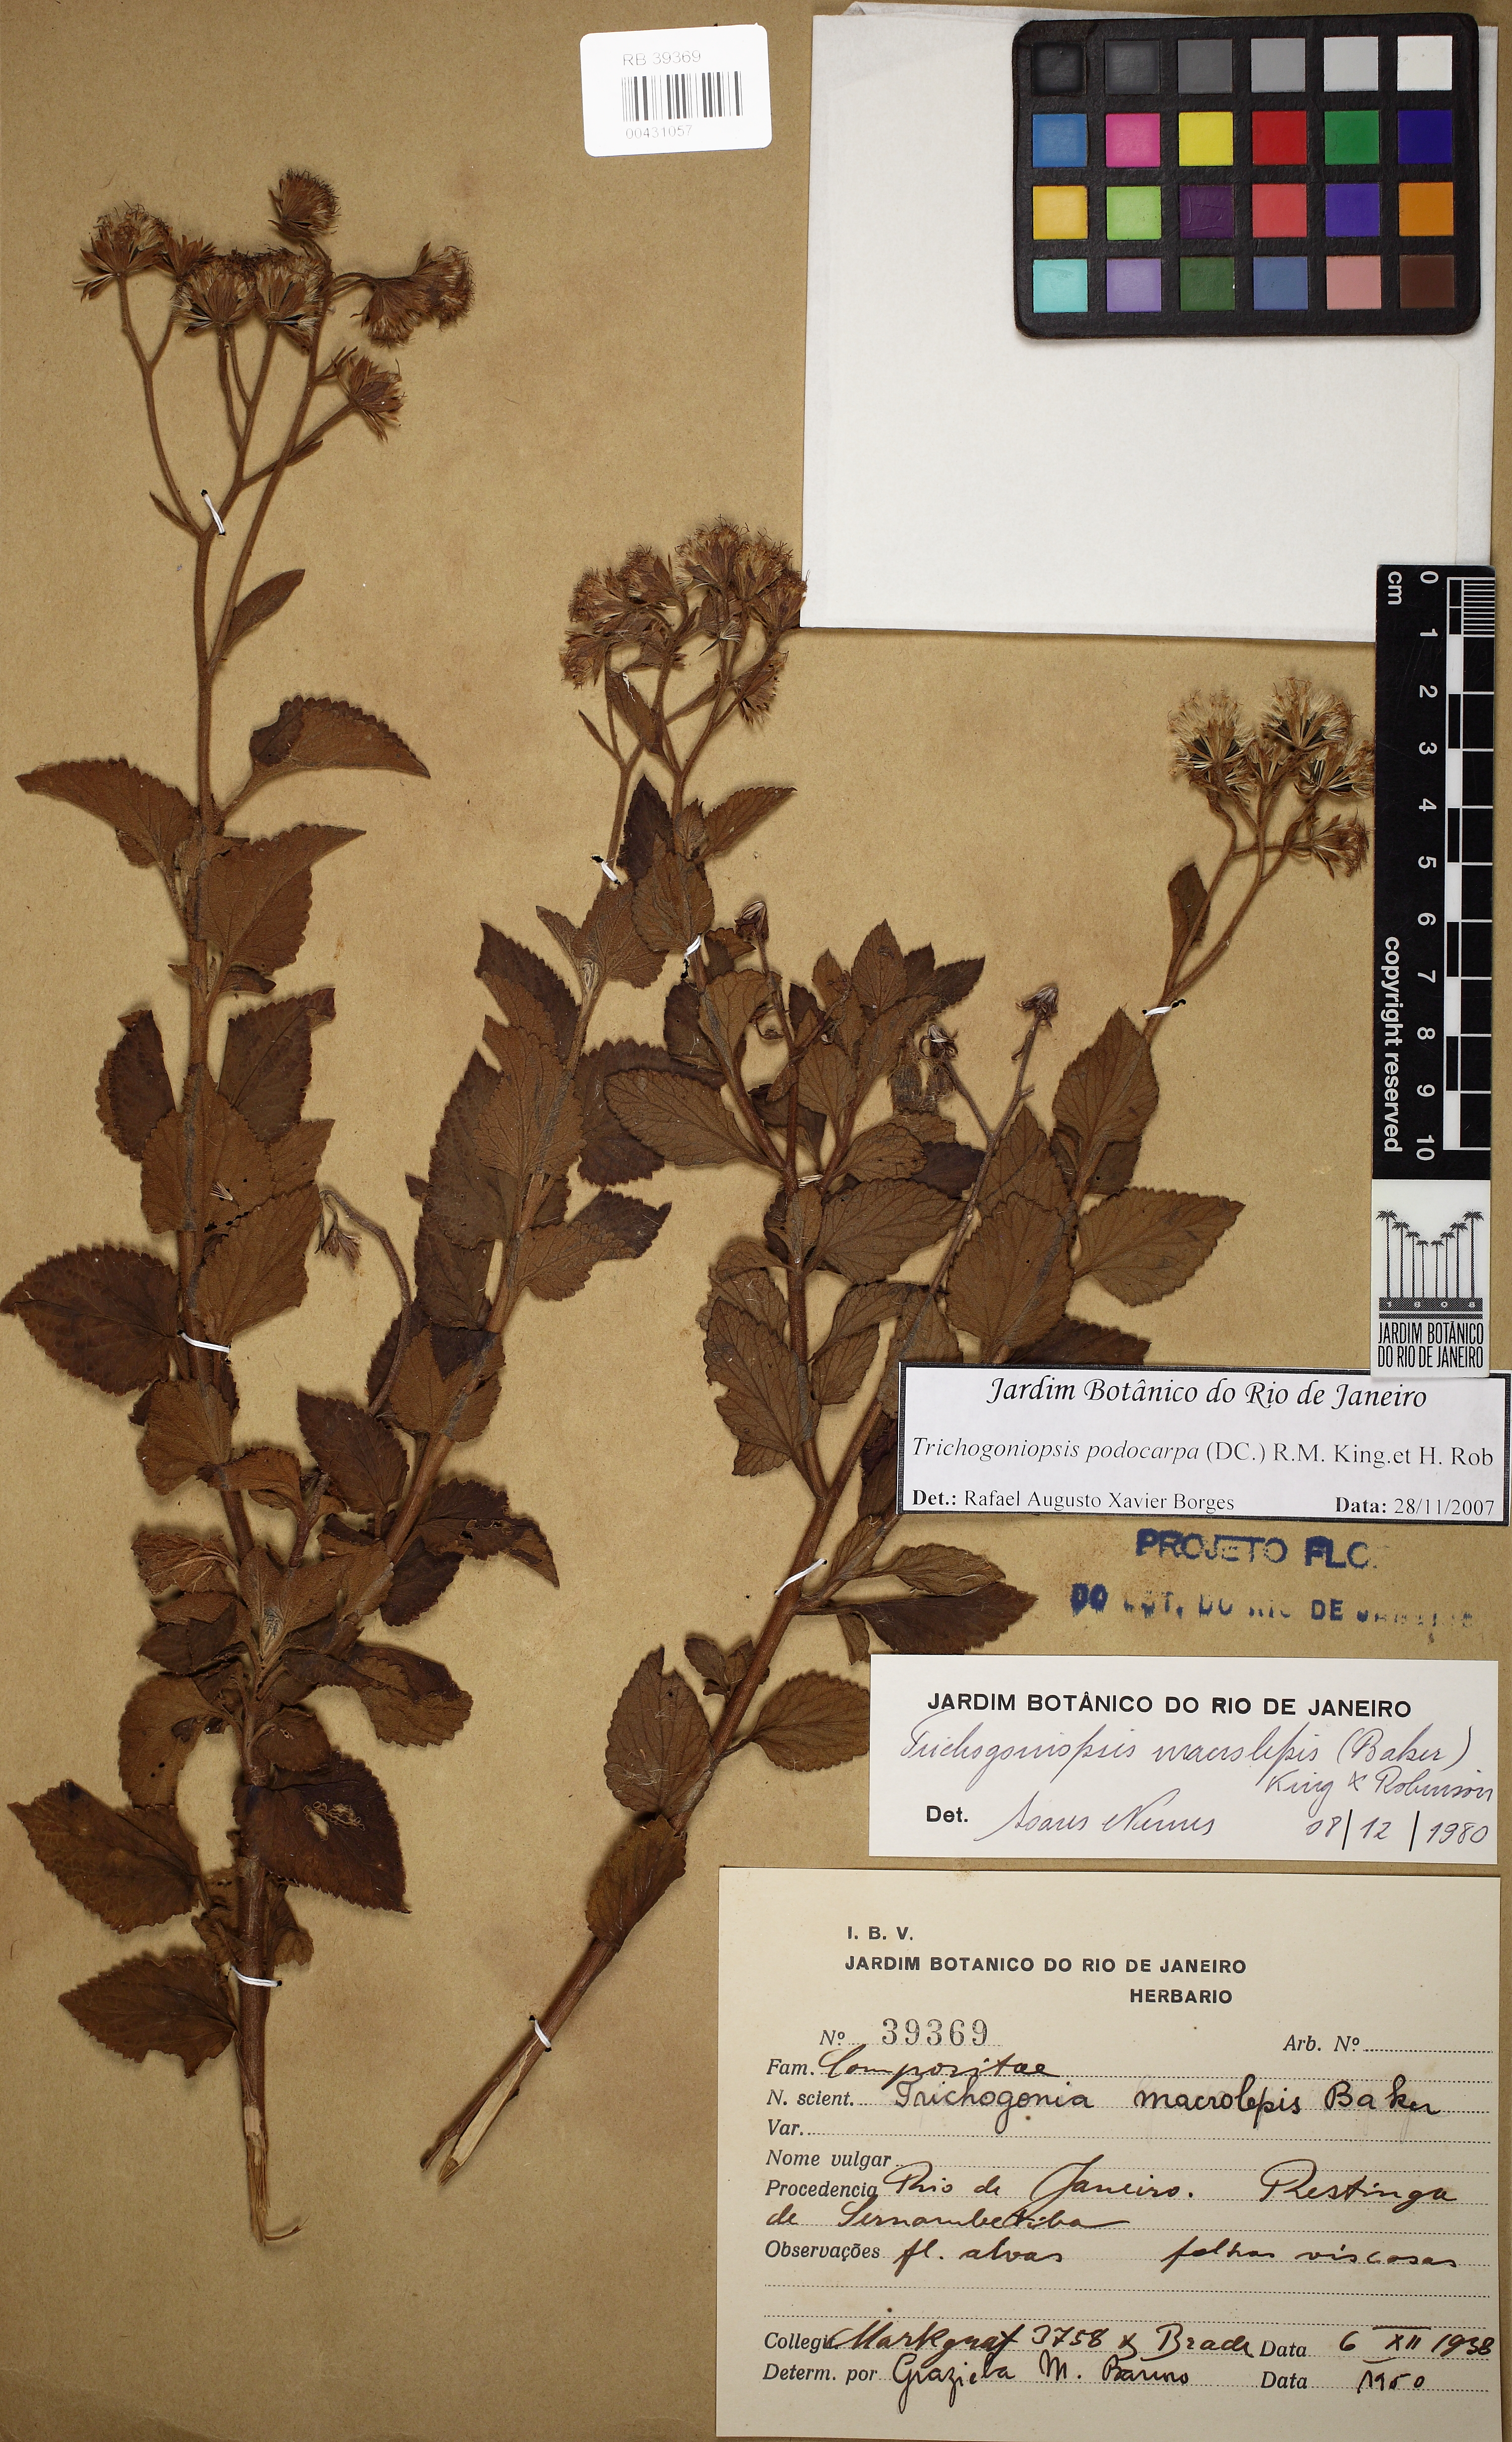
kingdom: Plantae
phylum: Tracheophyta
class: Magnoliopsida
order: Asterales
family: Asteraceae
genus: Trichogoniopsis
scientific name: Trichogoniopsis podocarpa
